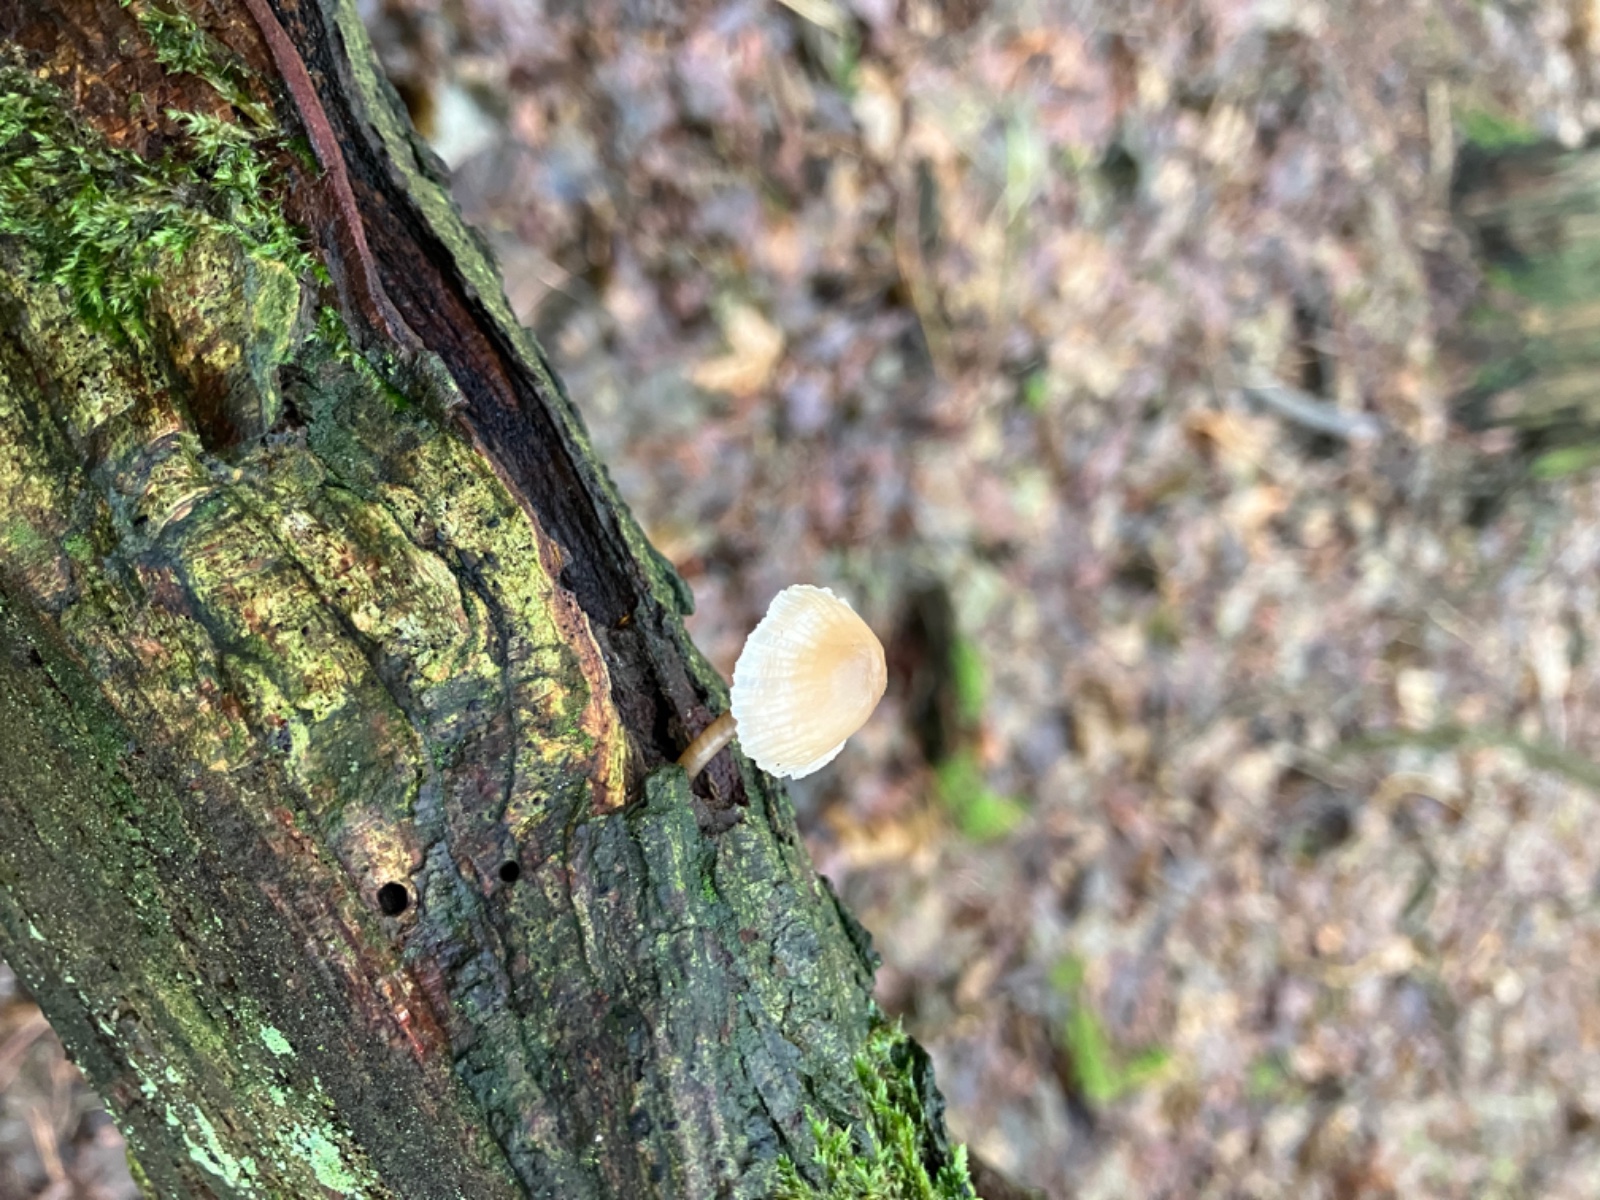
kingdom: Fungi
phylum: Basidiomycota
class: Agaricomycetes
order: Agaricales
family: Mycenaceae
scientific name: Mycenaceae
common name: huesvampfamilien
